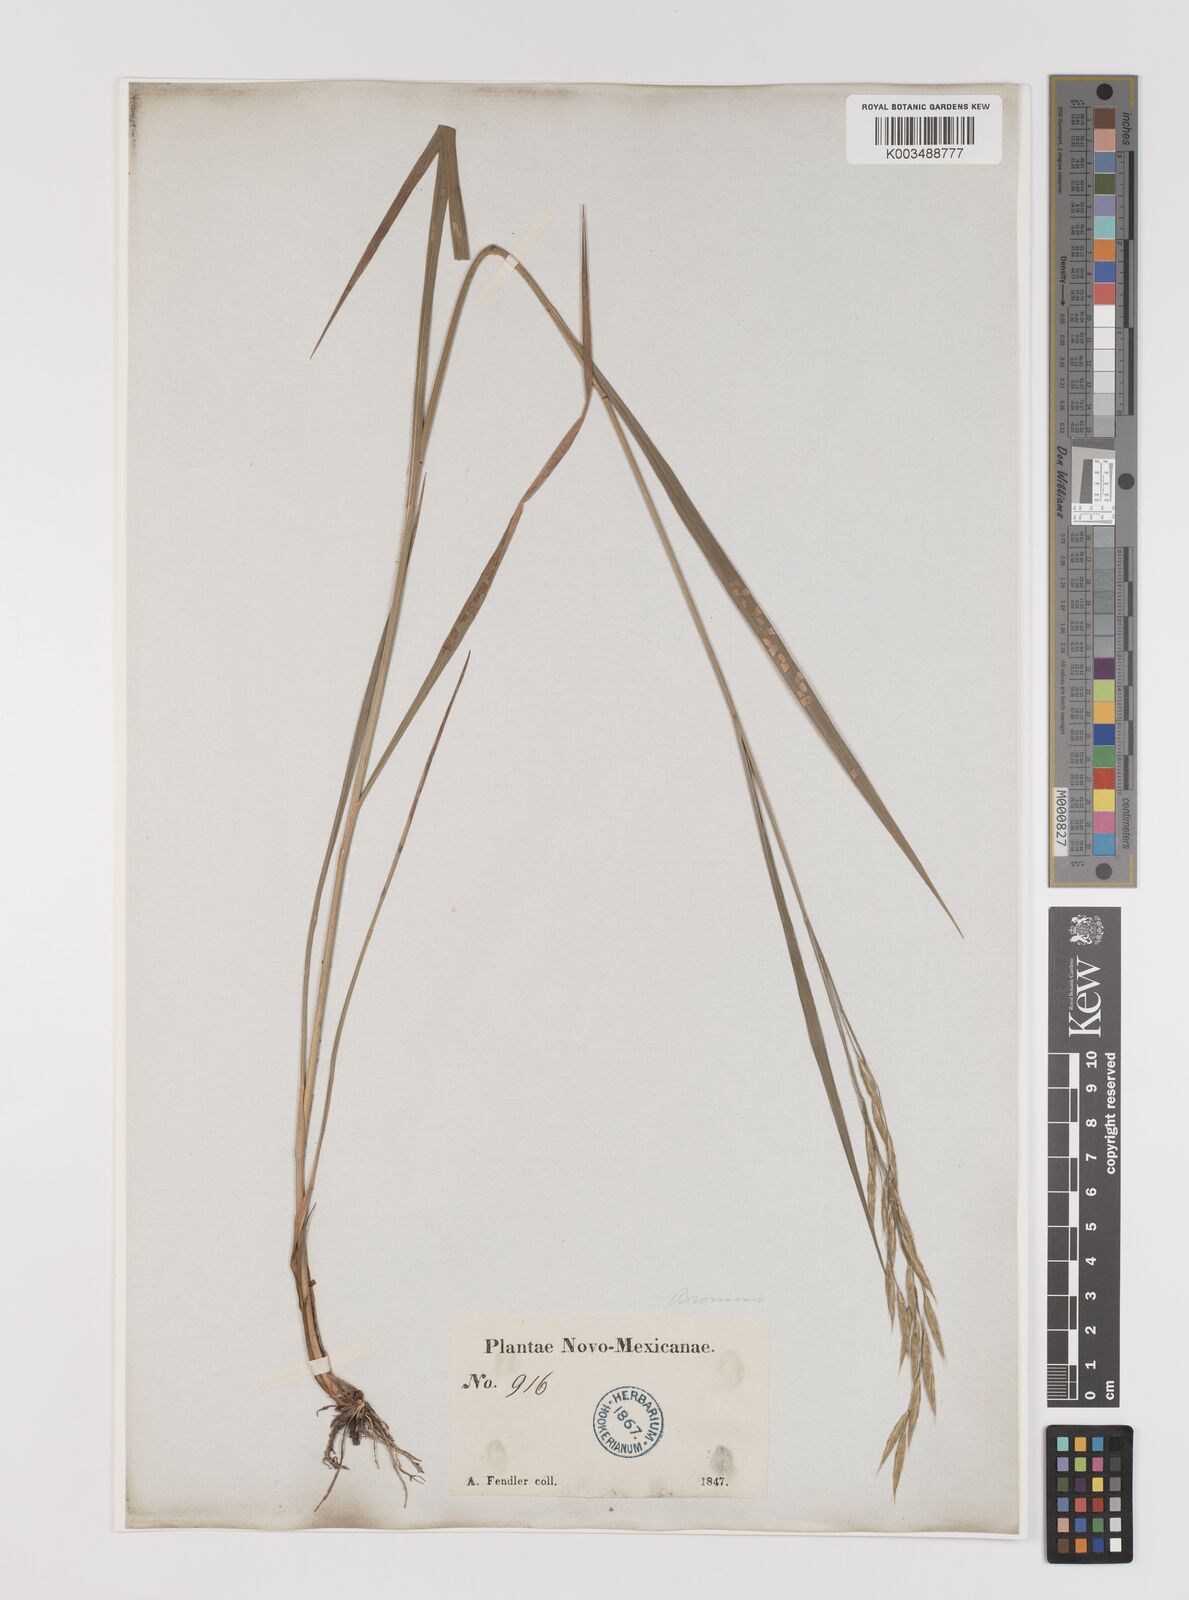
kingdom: Plantae
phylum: Tracheophyta
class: Liliopsida
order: Poales
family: Poaceae
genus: Bromus
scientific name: Bromus
